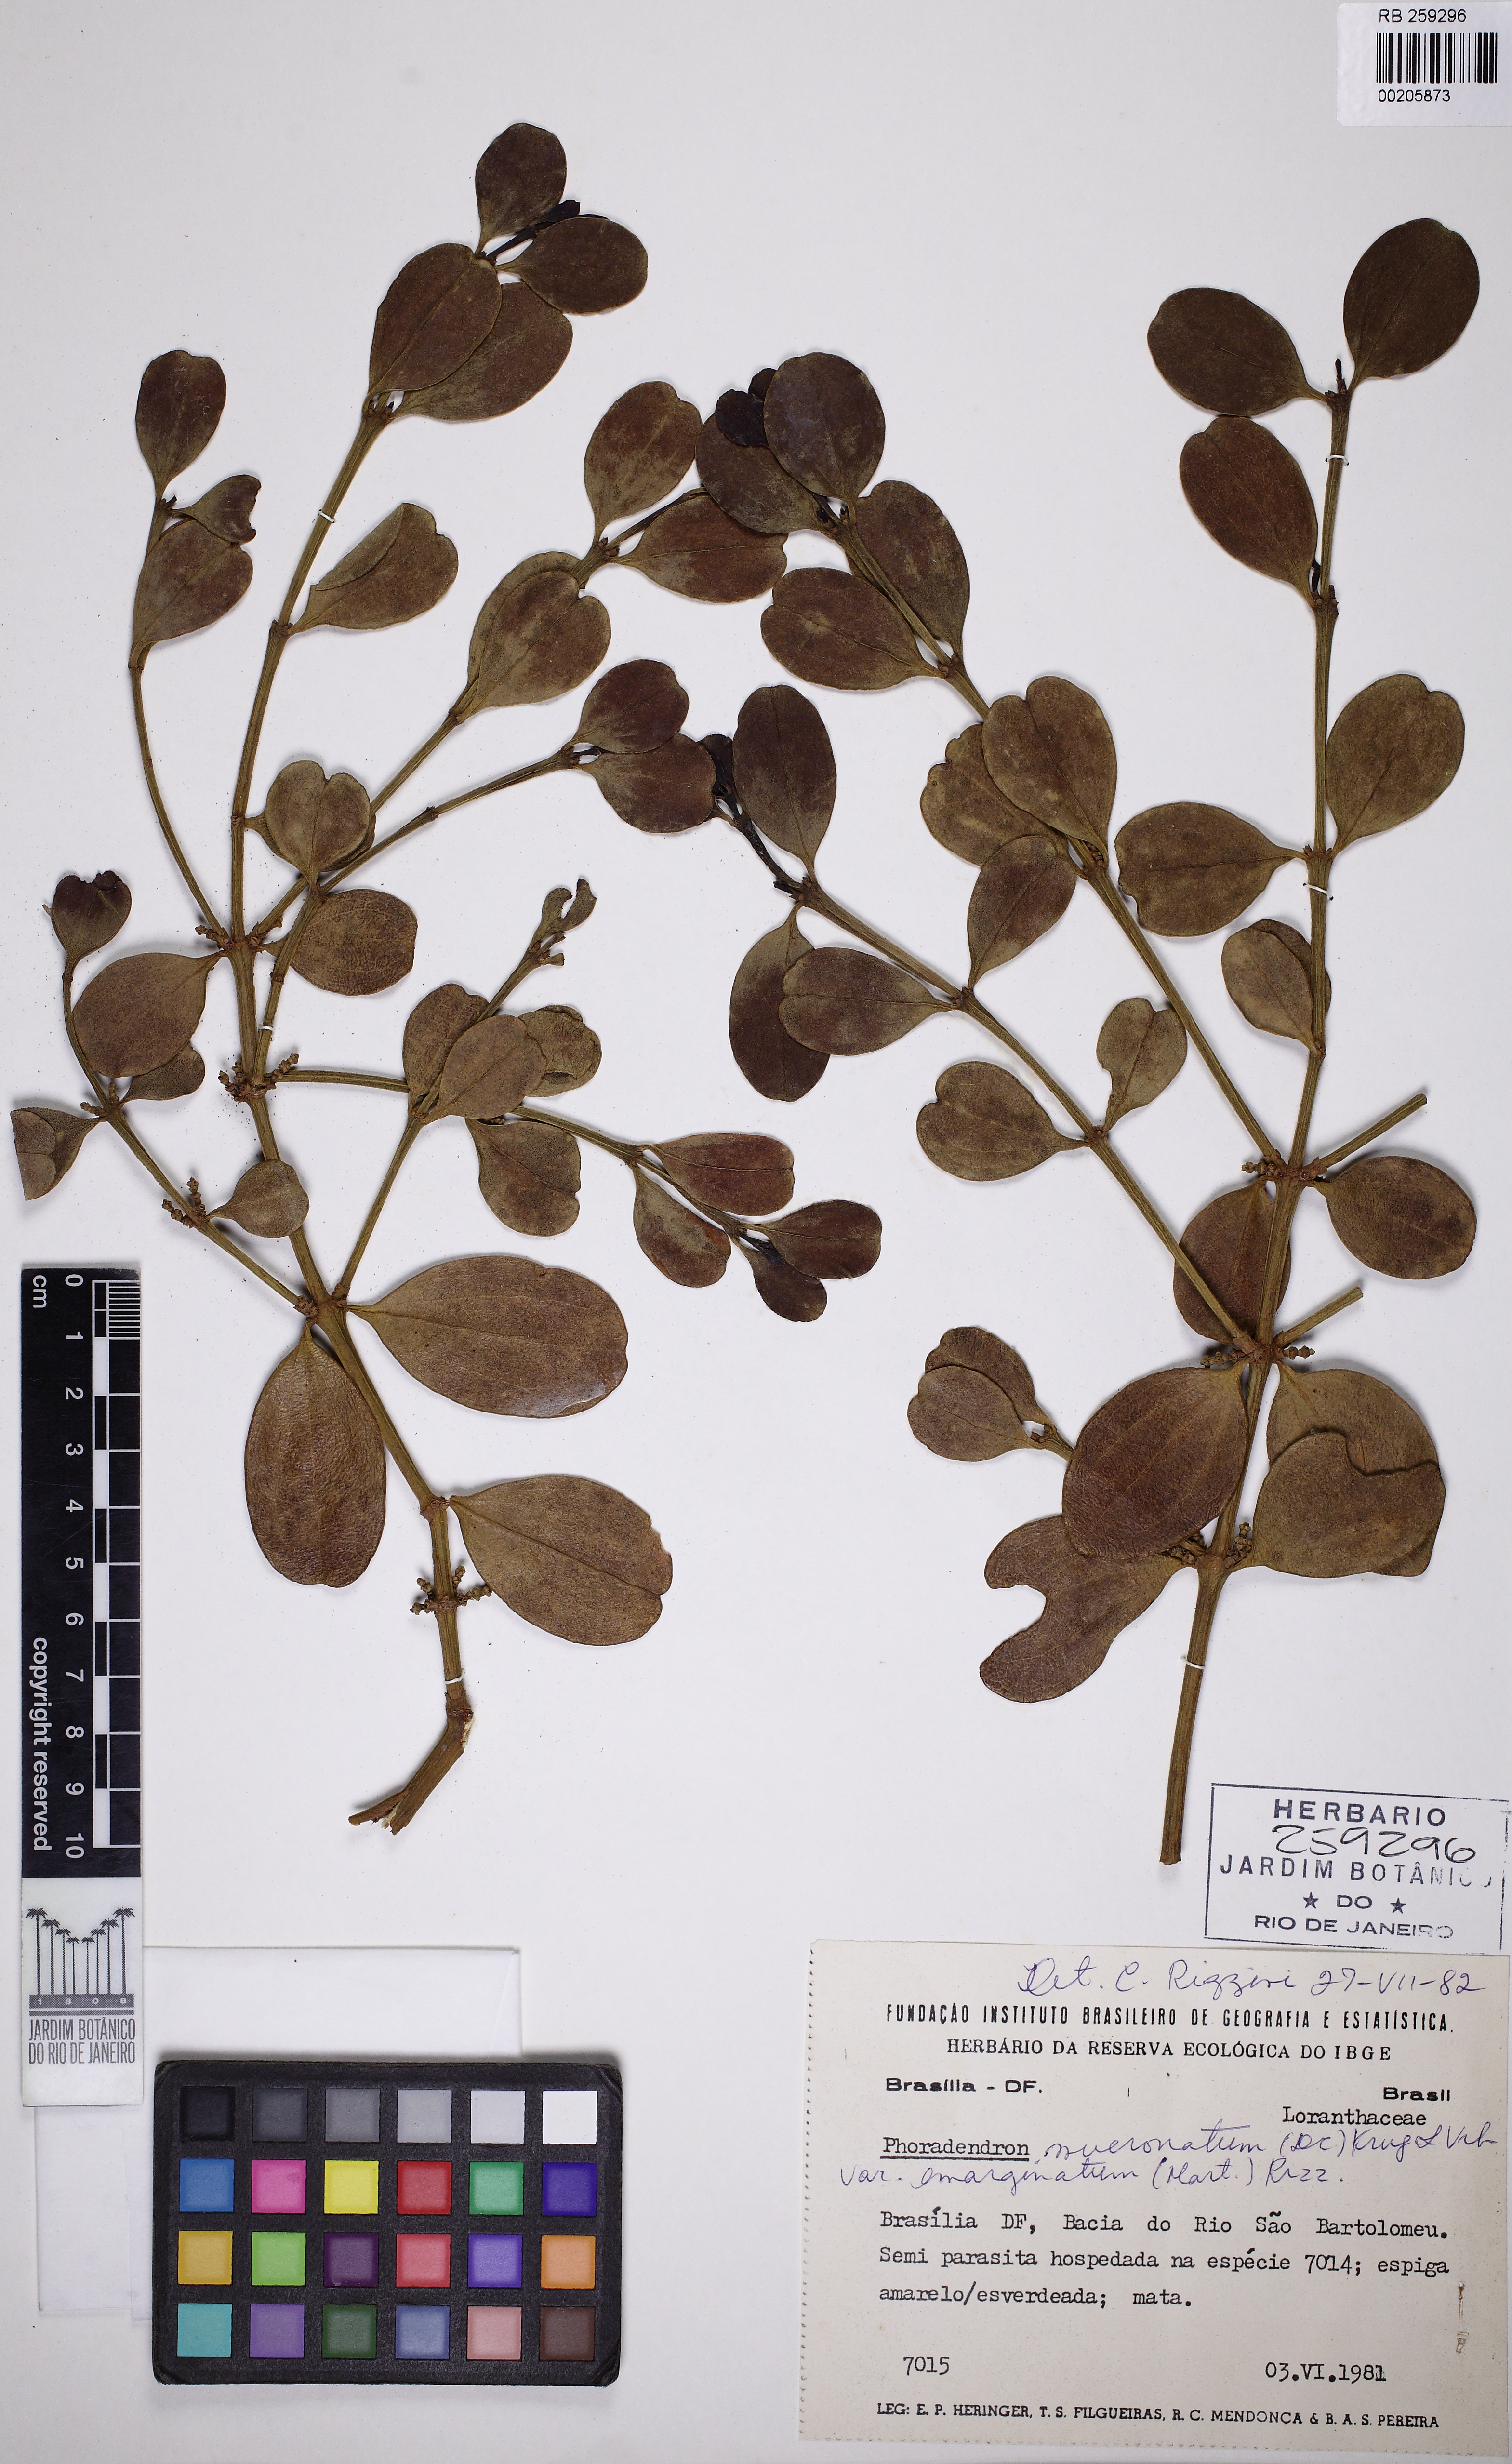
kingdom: Plantae
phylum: Tracheophyta
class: Magnoliopsida
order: Santalales
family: Viscaceae
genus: Phoradendron
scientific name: Phoradendron mucronatum
